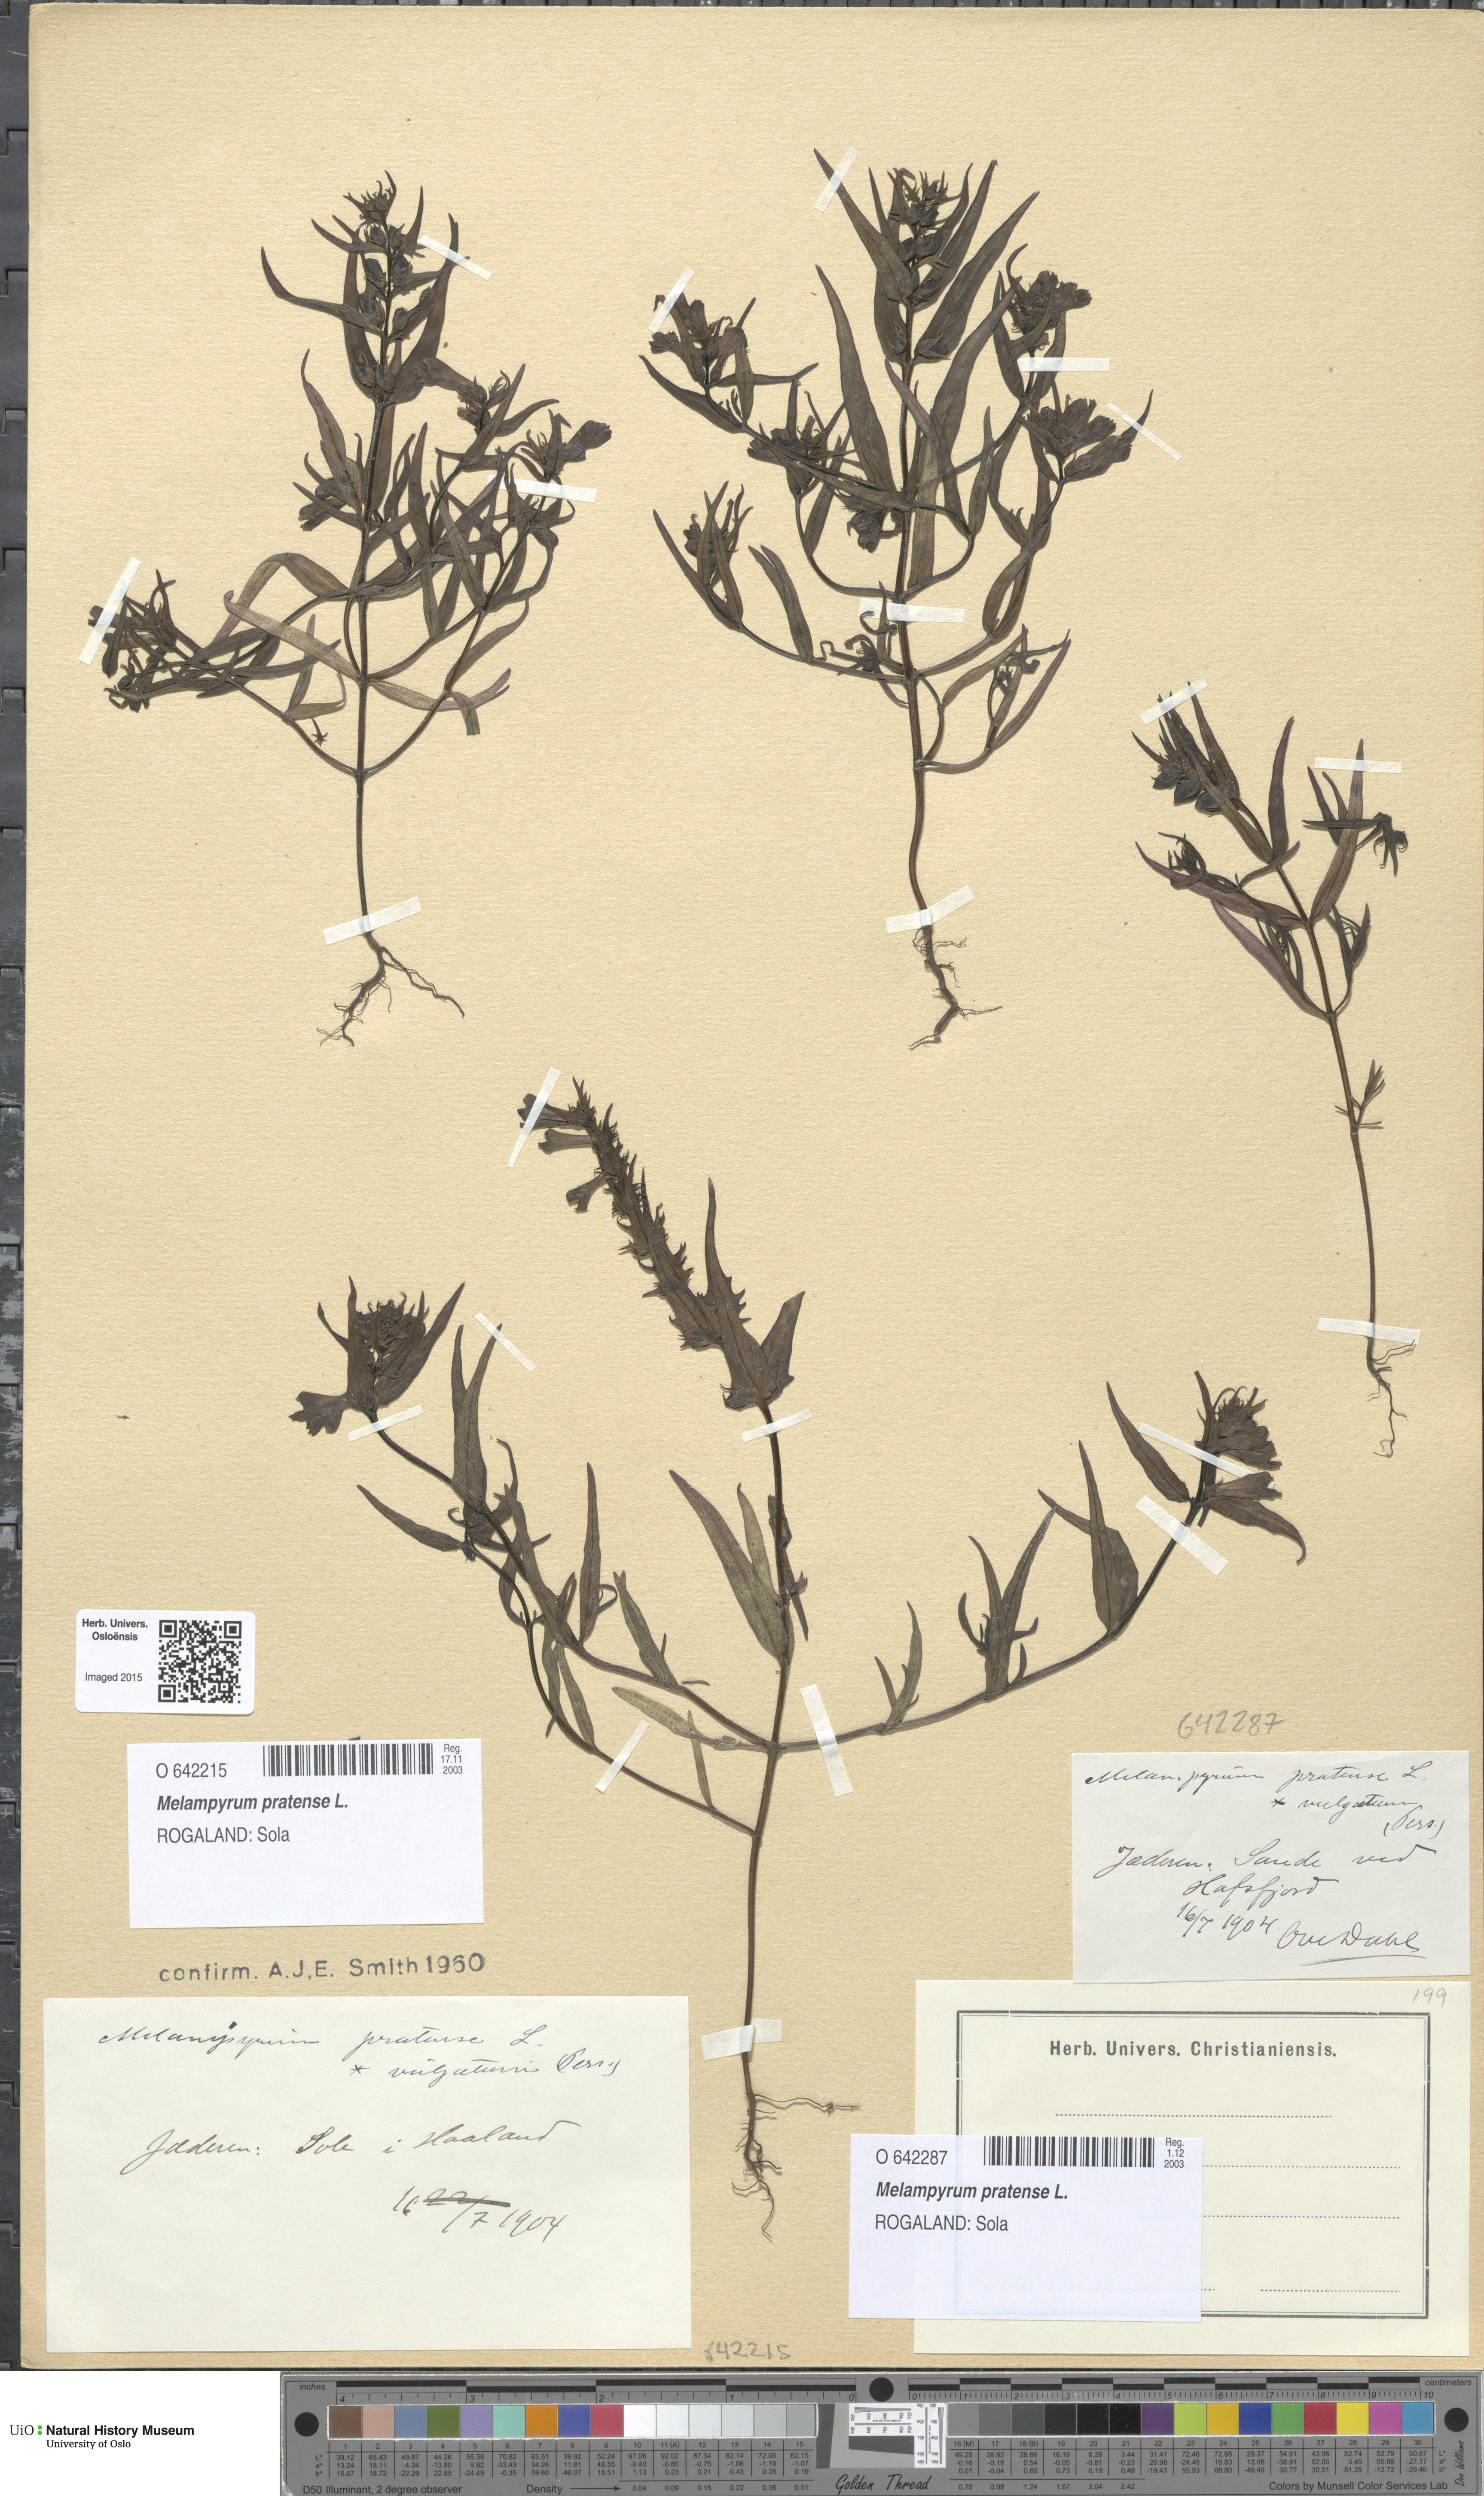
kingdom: Plantae
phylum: Tracheophyta
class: Magnoliopsida
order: Lamiales
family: Orobanchaceae
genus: Melampyrum
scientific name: Melampyrum pratense
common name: Common cow-wheat
